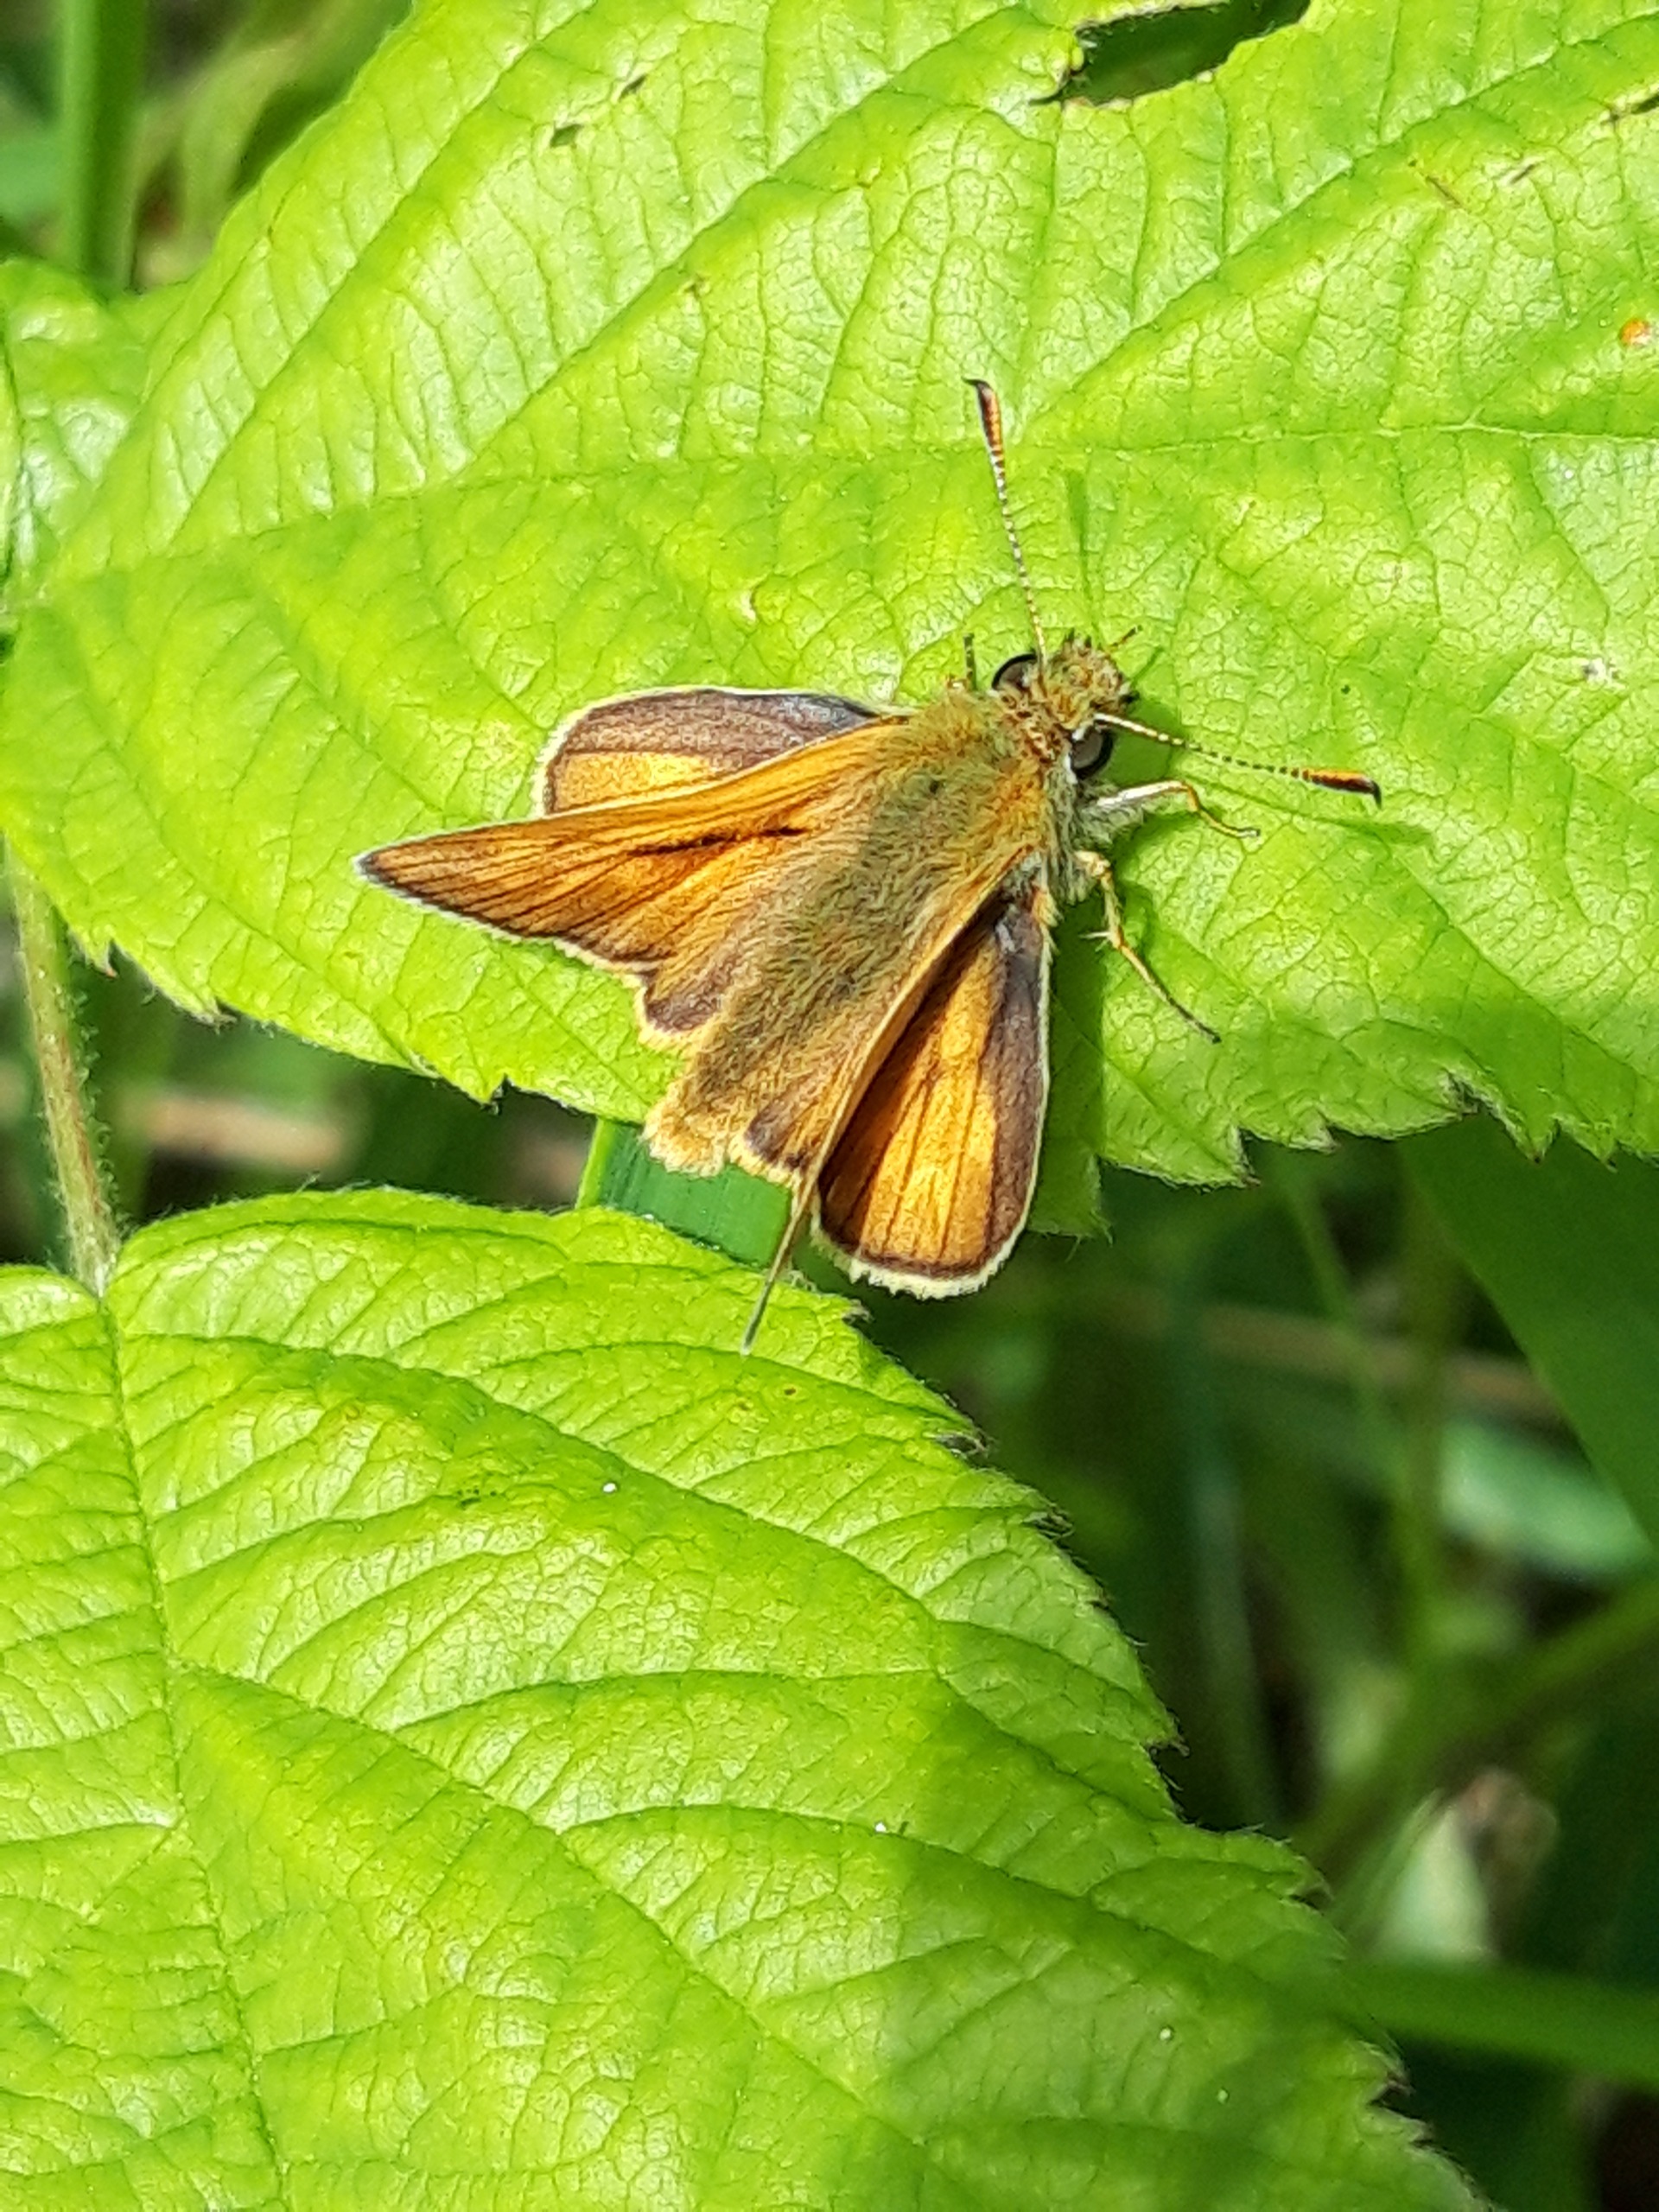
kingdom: Animalia
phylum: Arthropoda
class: Insecta
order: Lepidoptera
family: Hesperiidae
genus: Ochlodes
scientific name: Ochlodes venata
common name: Stor bredpande
